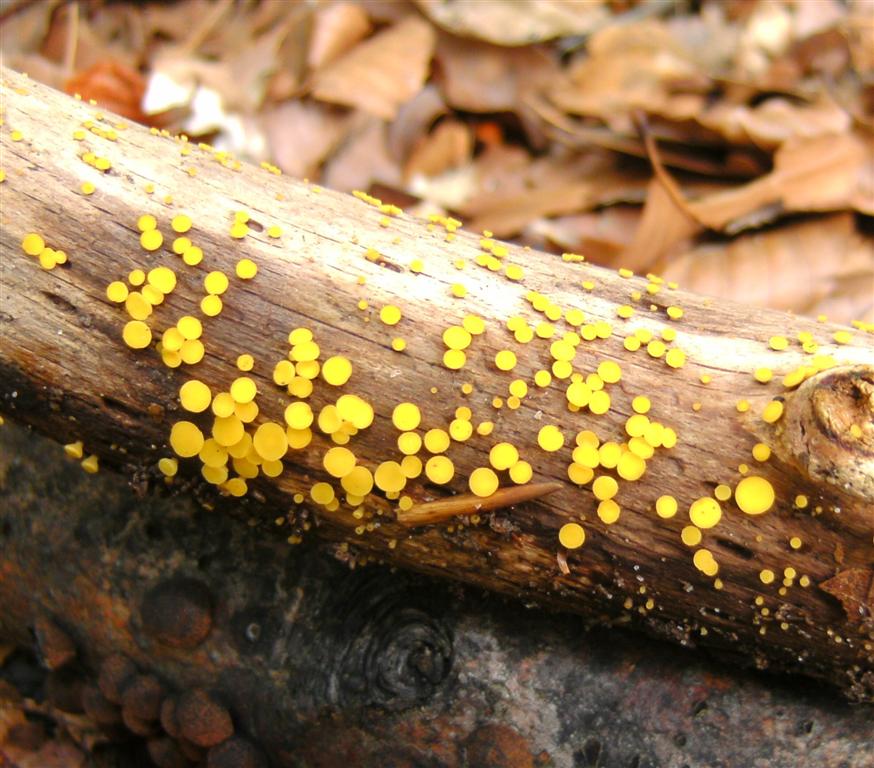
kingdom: Fungi
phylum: Ascomycota
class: Leotiomycetes
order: Helotiales
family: Pezizellaceae
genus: Calycina
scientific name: Calycina citrina
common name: almindelig gulskive
